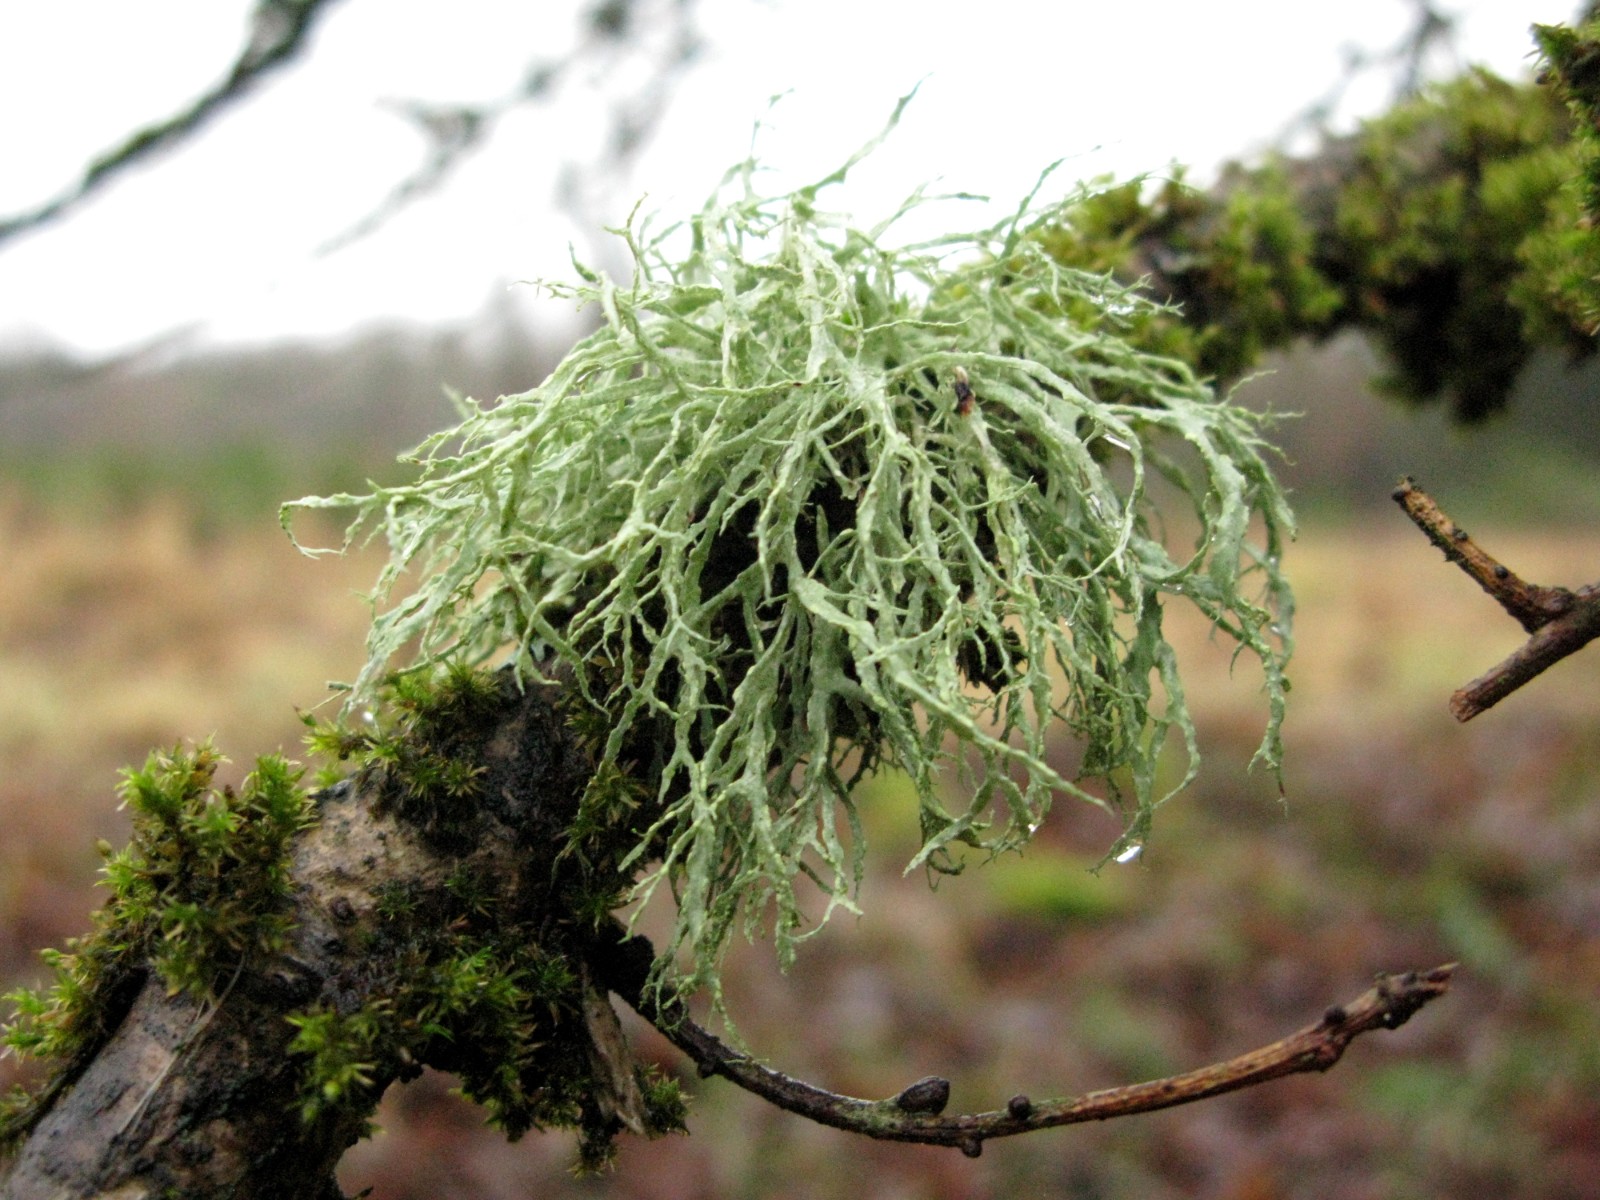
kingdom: Fungi
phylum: Ascomycota
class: Lecanoromycetes
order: Lecanorales
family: Ramalinaceae
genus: Ramalina
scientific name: Ramalina farinacea
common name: melet grenlav
